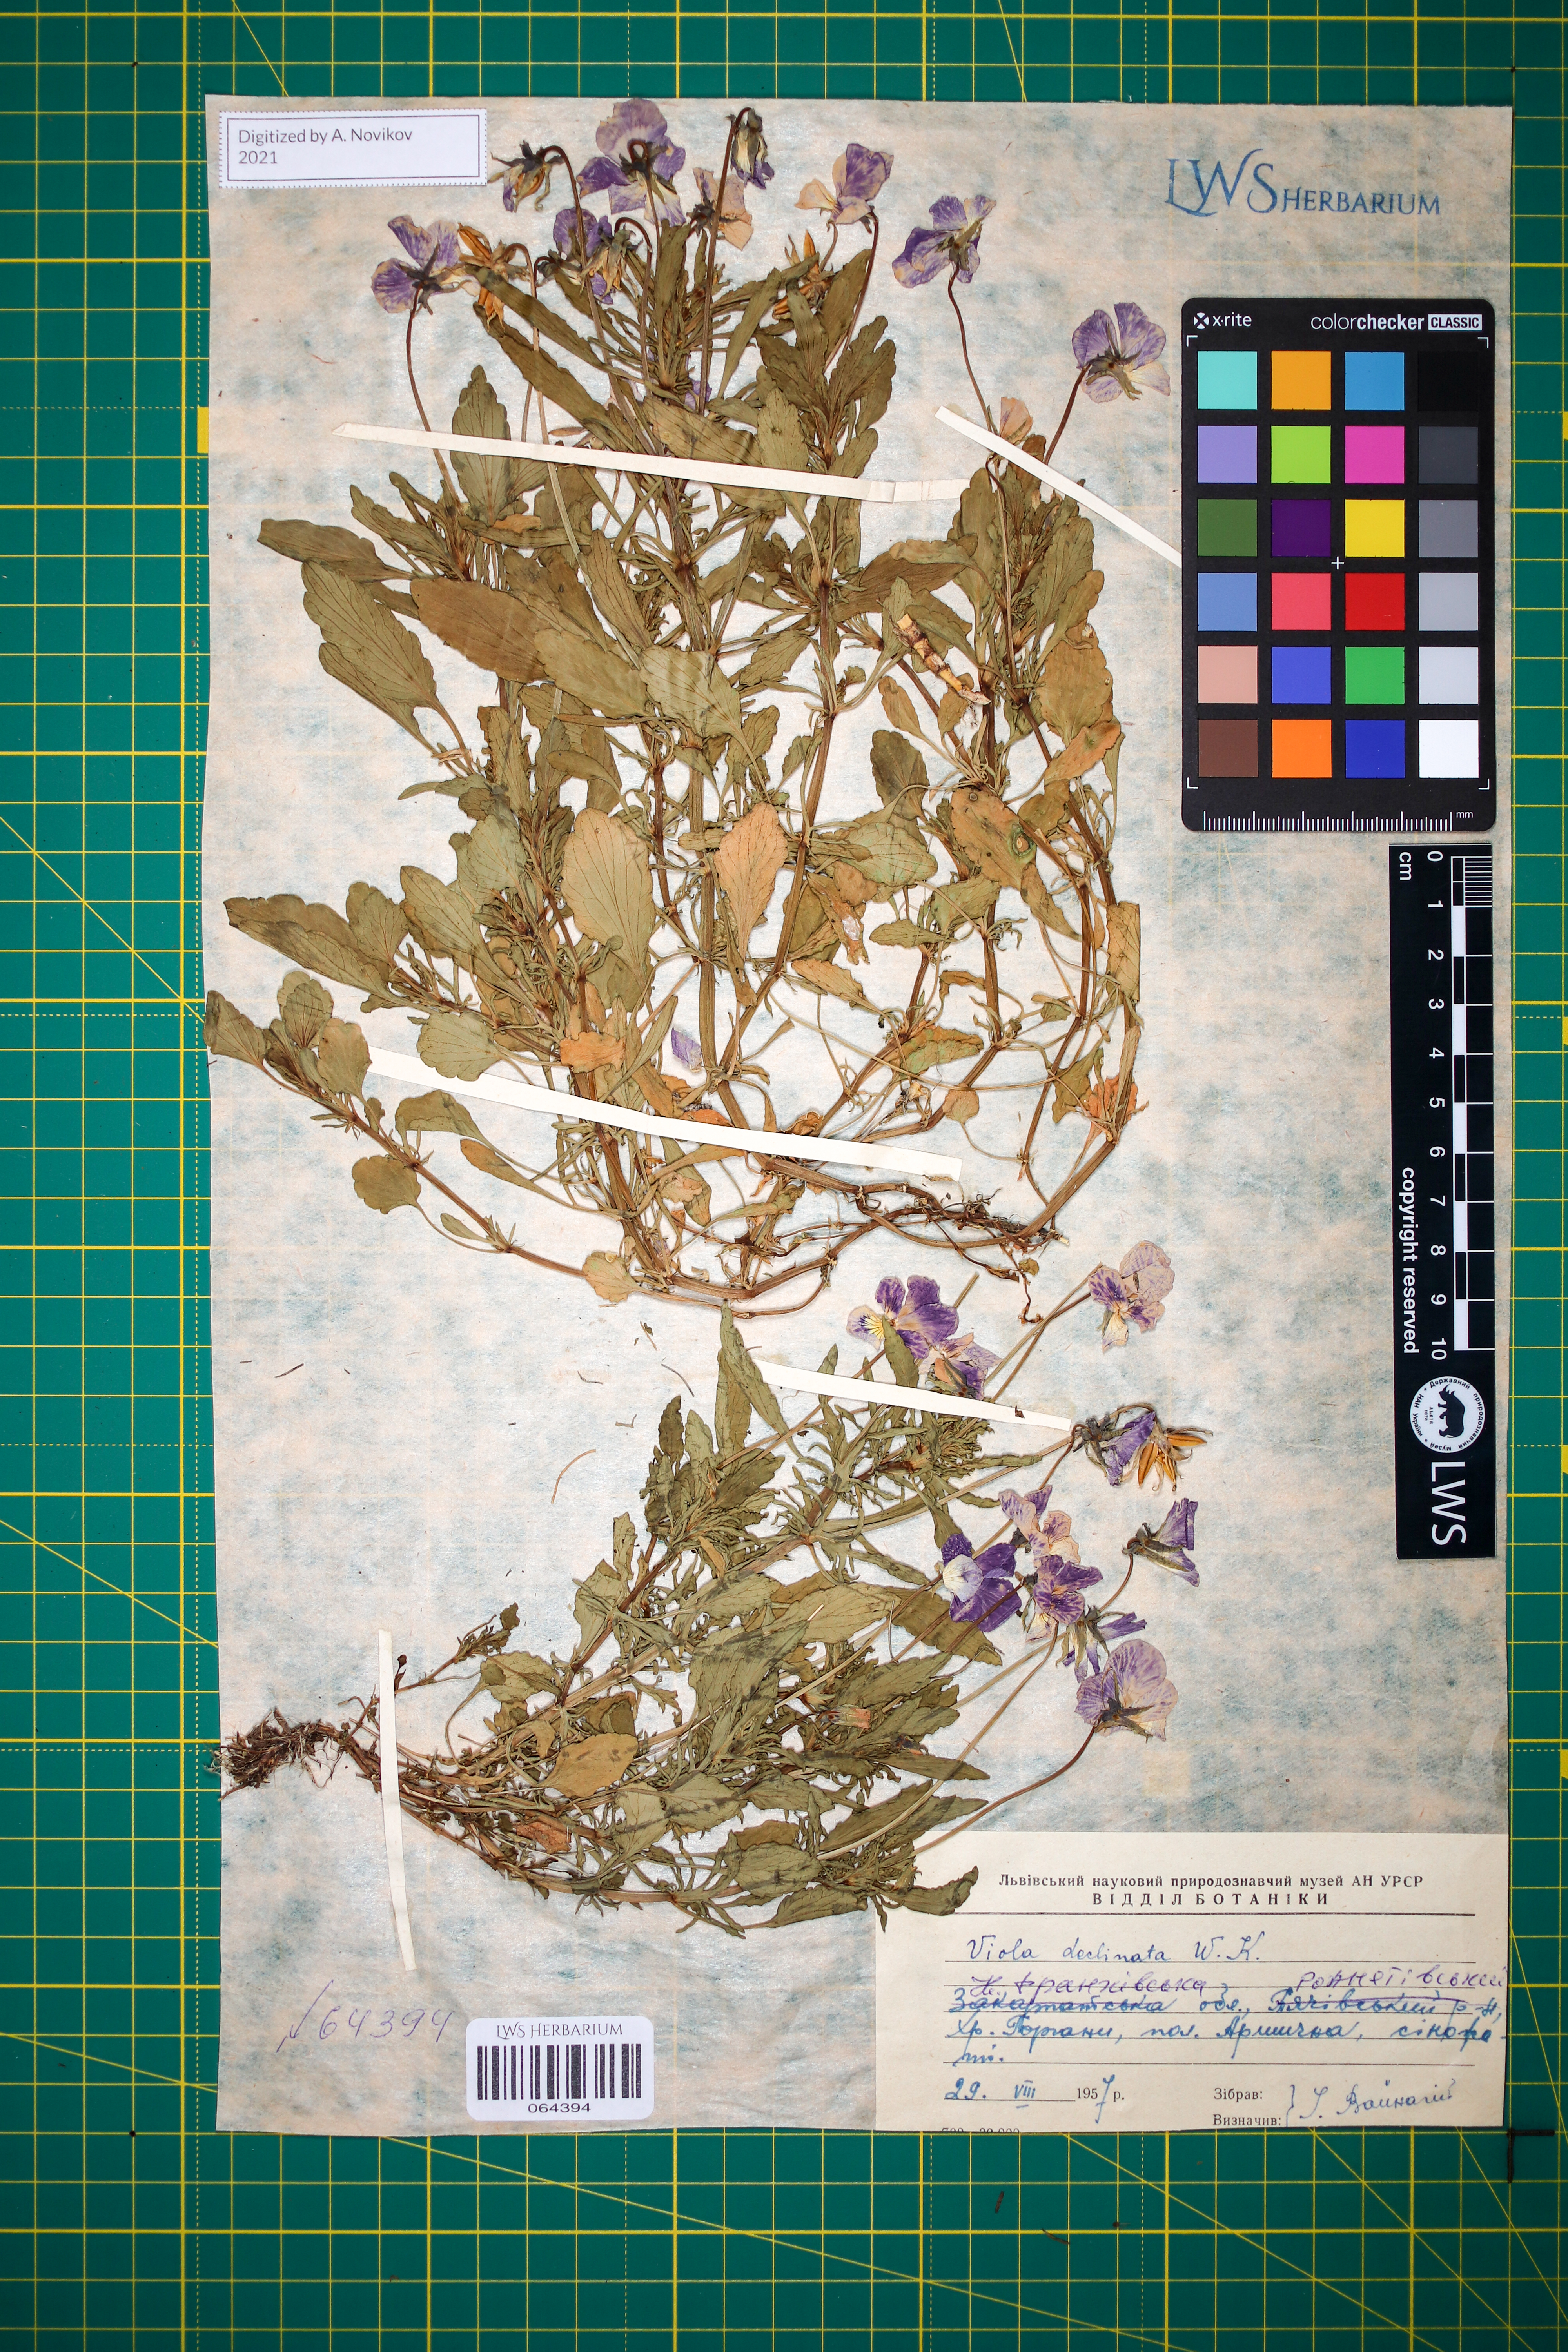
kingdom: Plantae
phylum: Tracheophyta
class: Magnoliopsida
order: Malpighiales
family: Violaceae
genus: Viola
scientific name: Viola declinata
